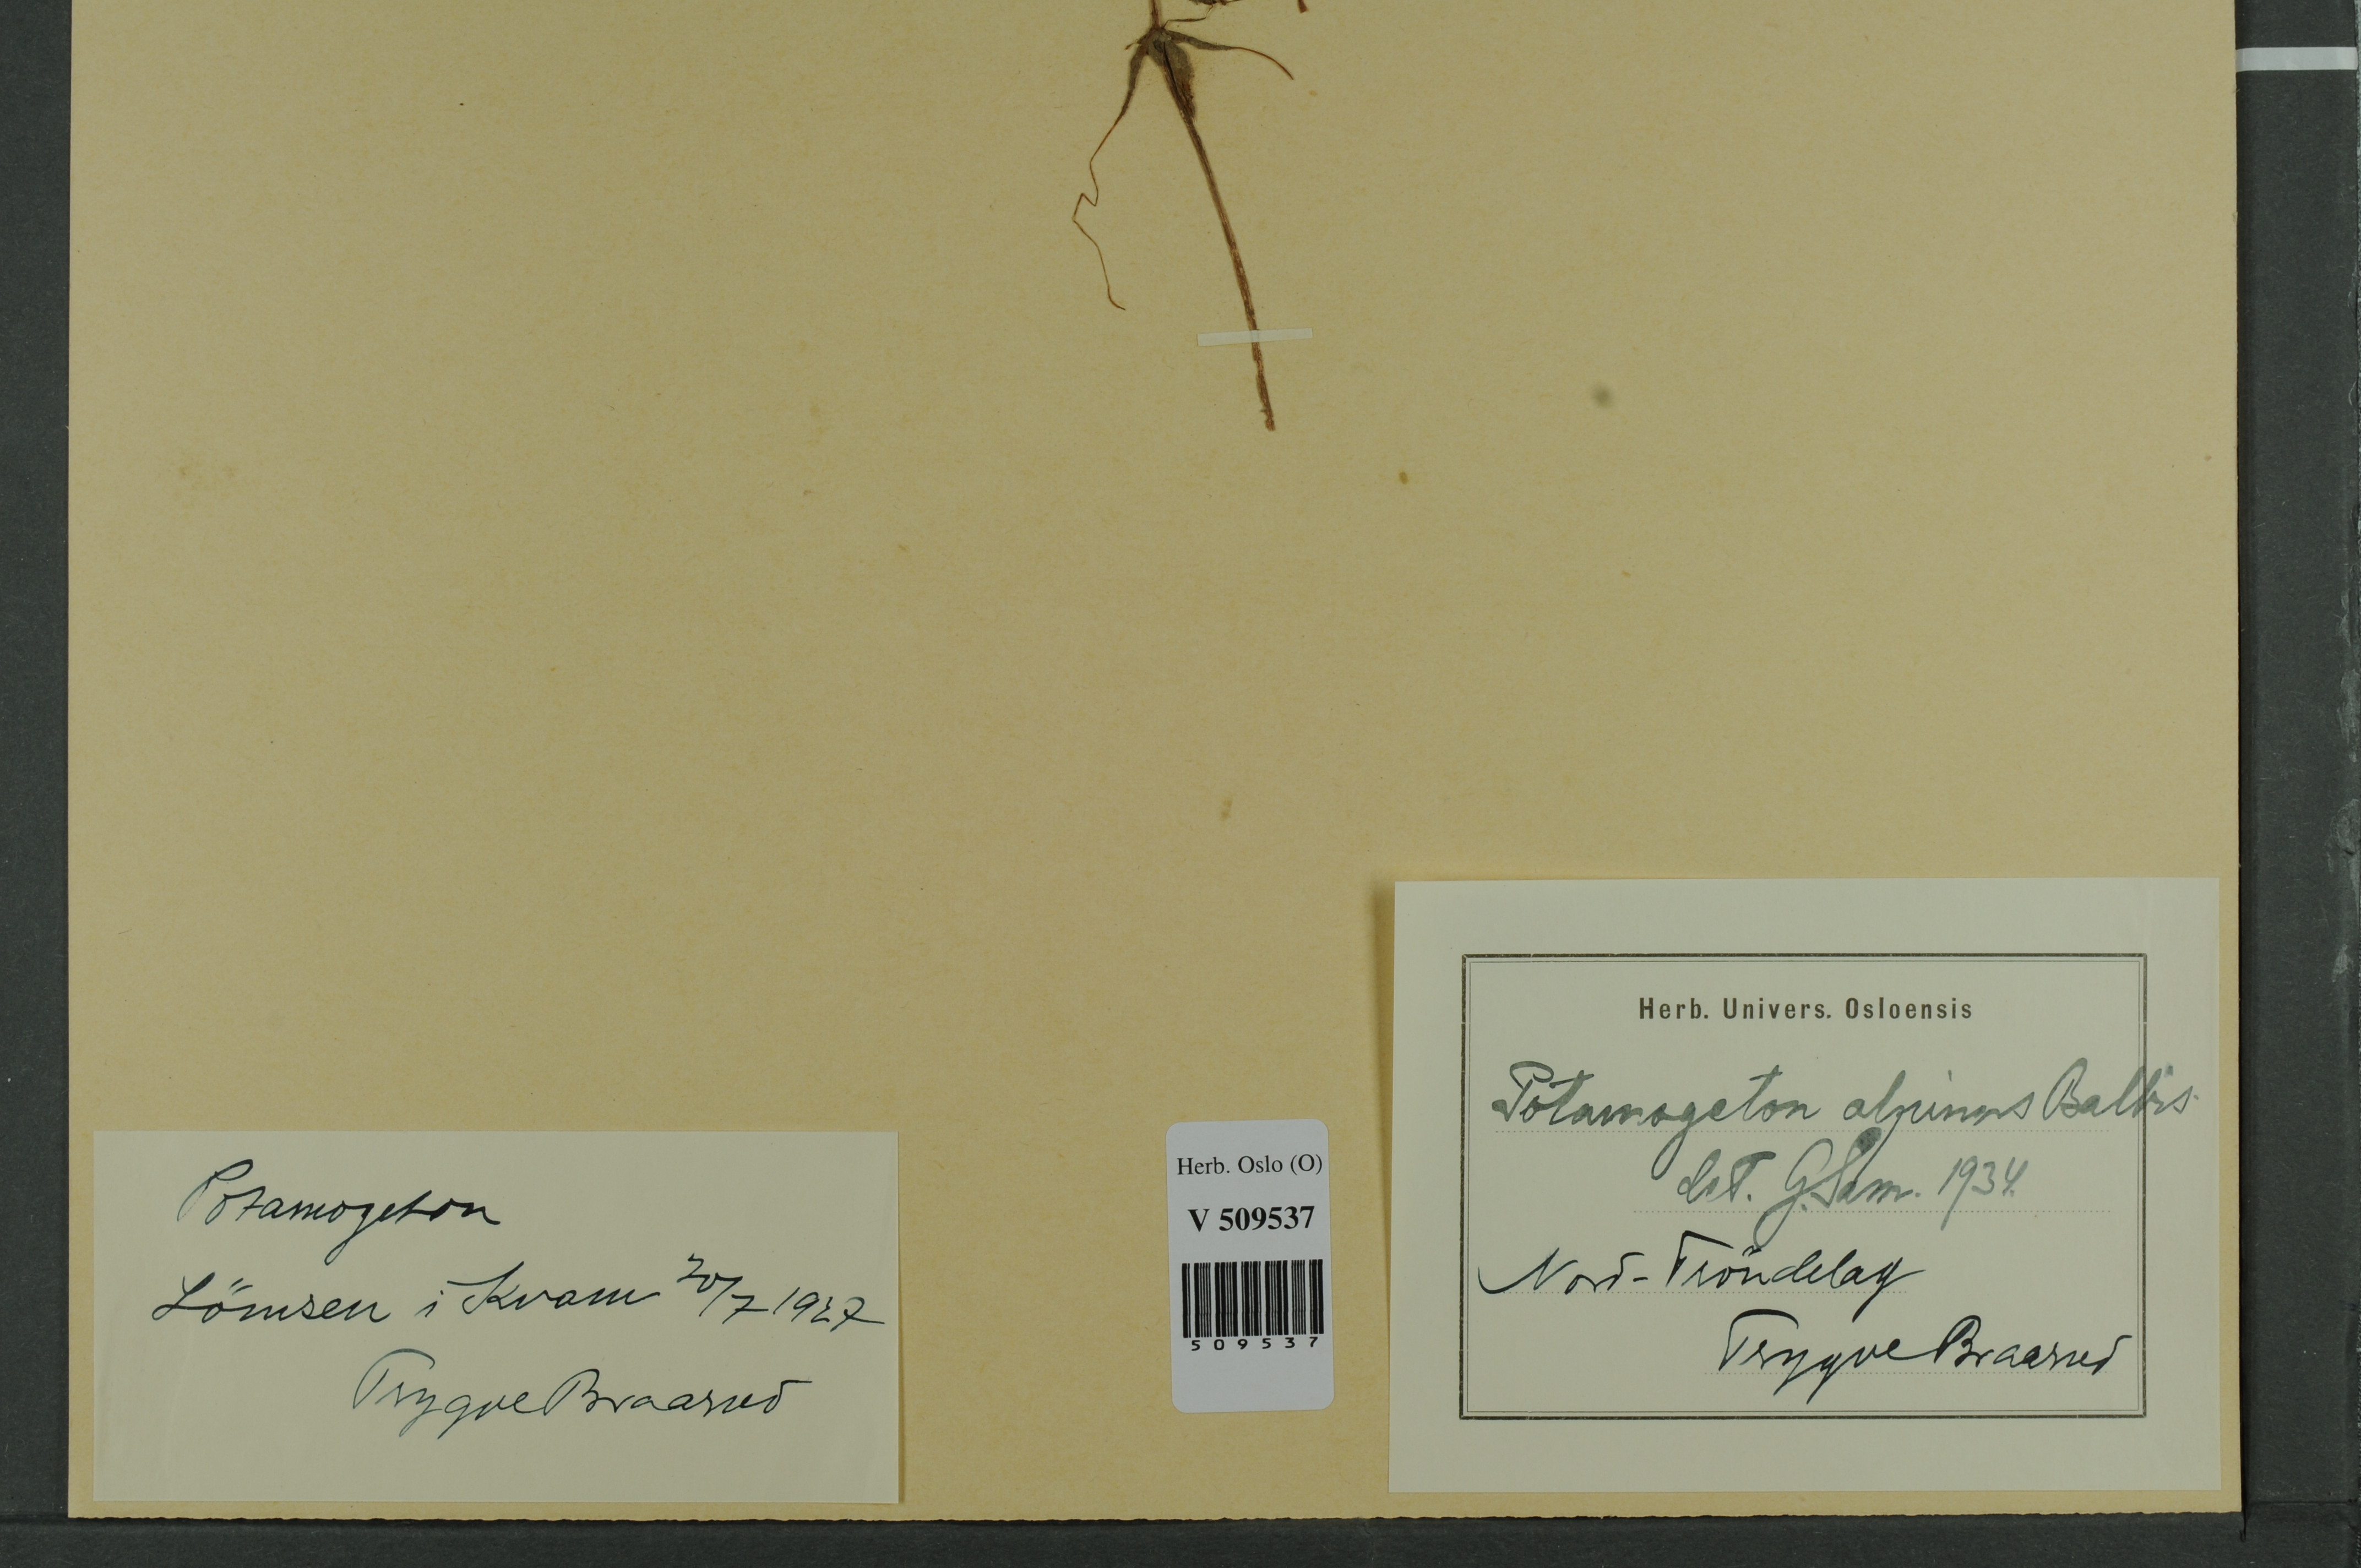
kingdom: Plantae
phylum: Tracheophyta
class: Liliopsida
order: Alismatales
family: Potamogetonaceae
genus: Potamogeton
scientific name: Potamogeton alpinus
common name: Red pondweed
